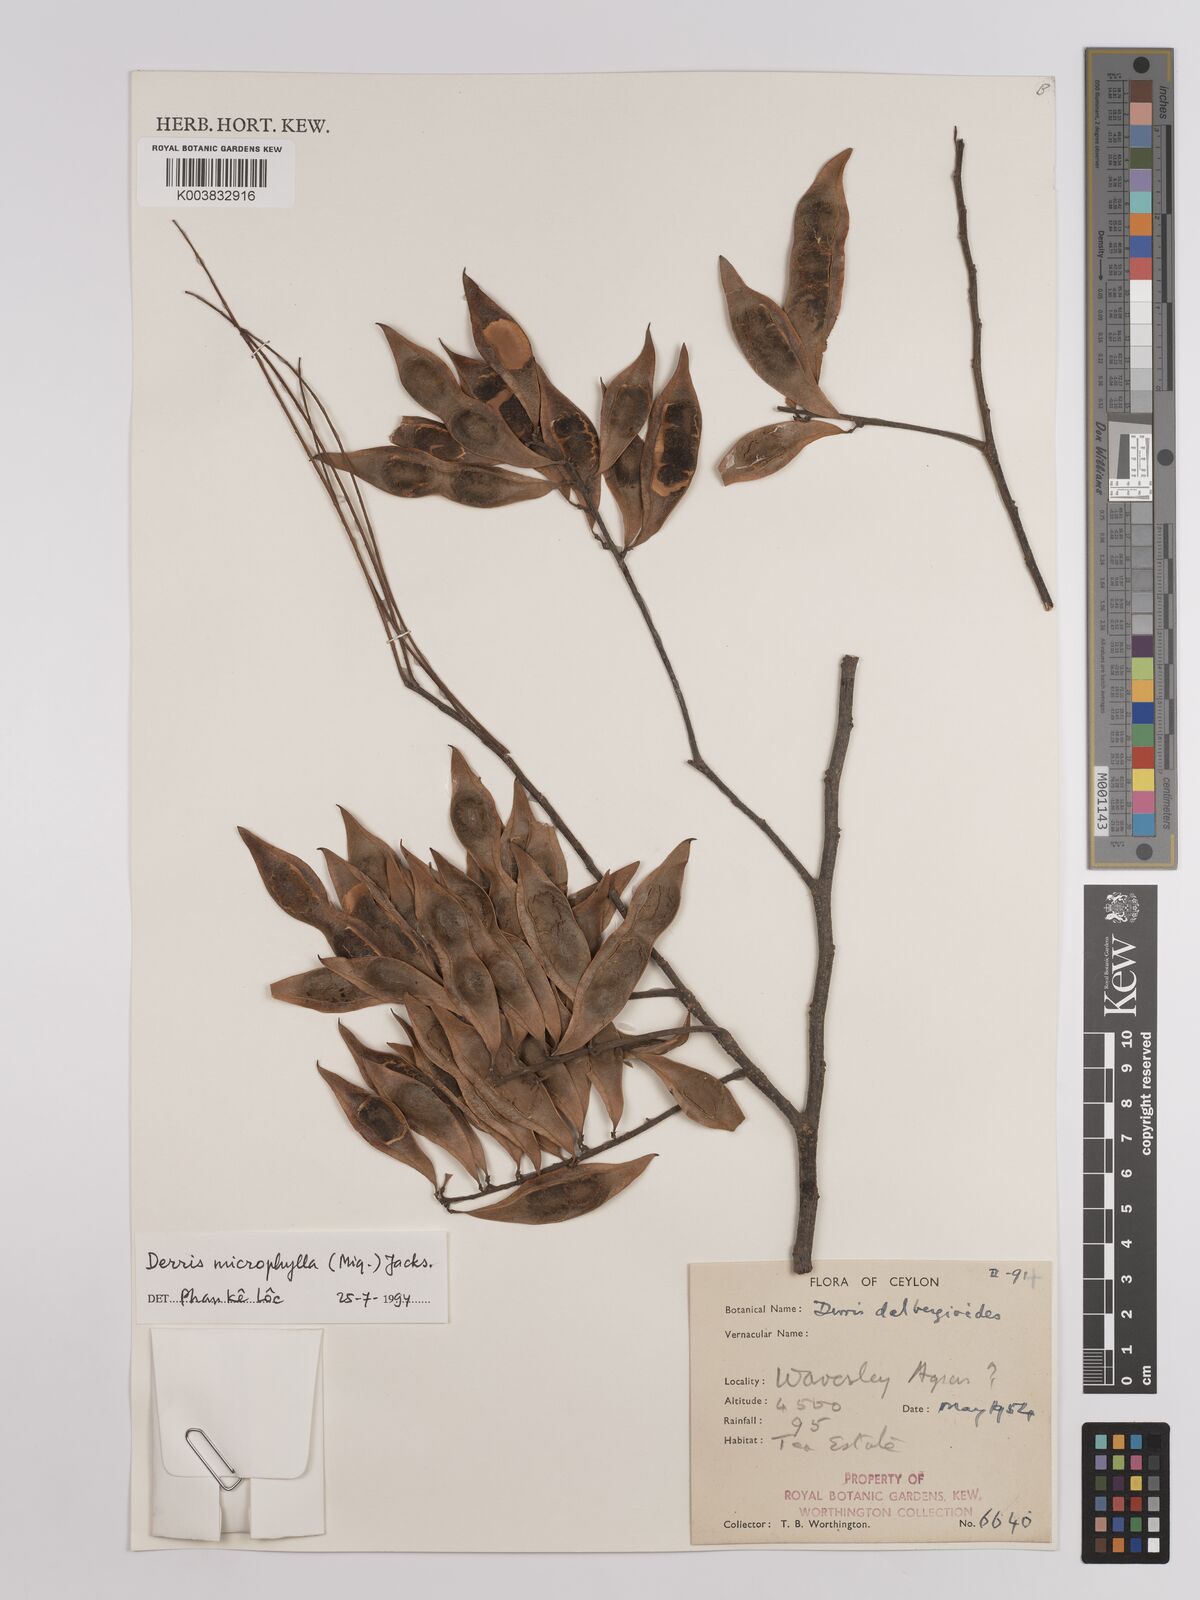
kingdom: Plantae
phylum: Tracheophyta
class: Magnoliopsida
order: Fabales
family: Fabaceae
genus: Brachypterum
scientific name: Brachypterum microphyllum
